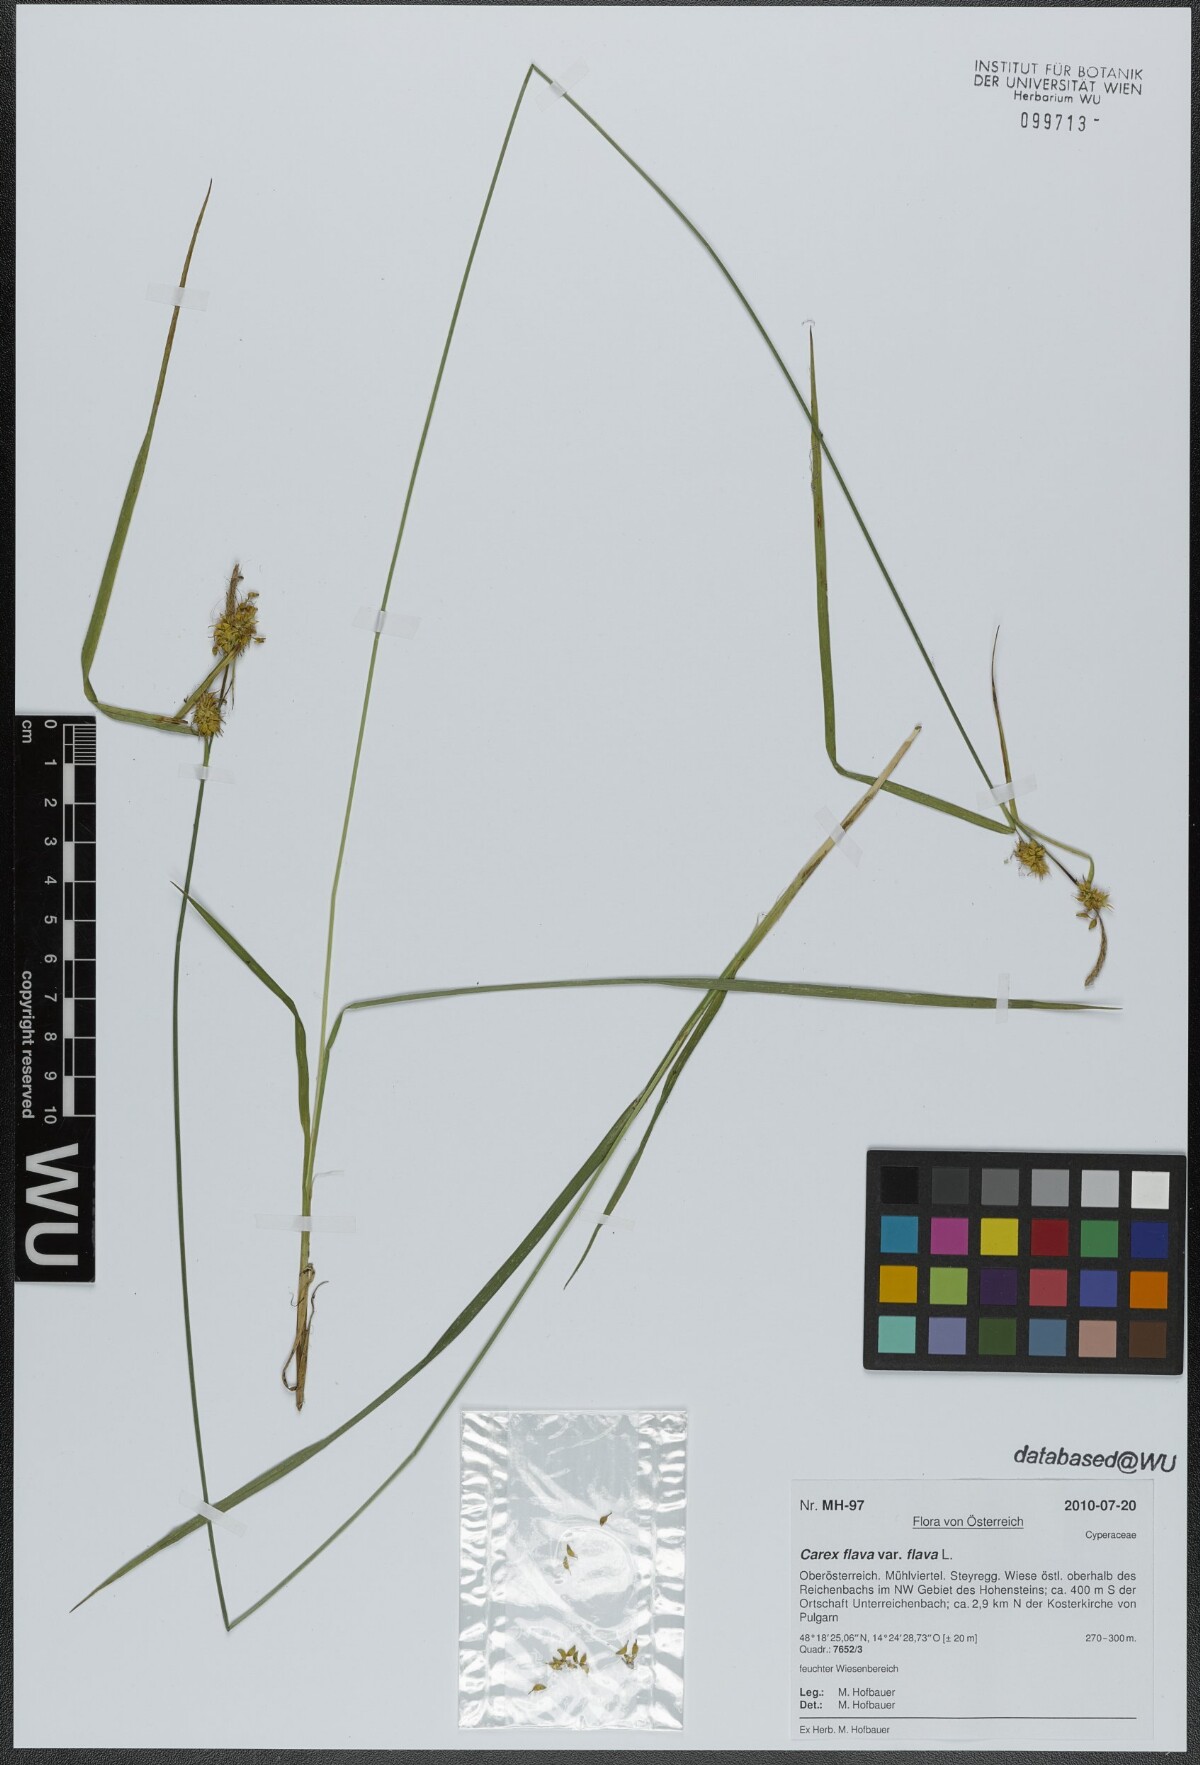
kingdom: Plantae
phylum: Tracheophyta
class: Liliopsida
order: Poales
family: Cyperaceae
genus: Carex
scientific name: Carex flava
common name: Large yellow-sedge
